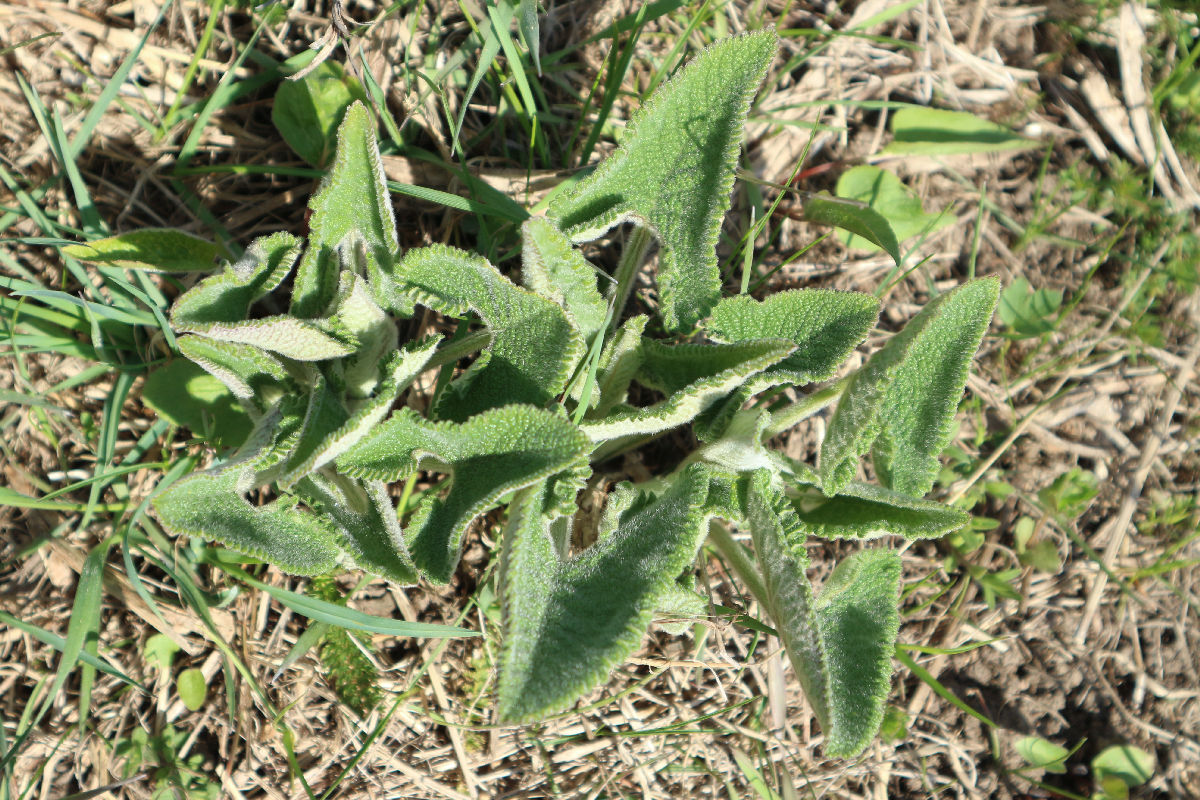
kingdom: Plantae
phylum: Tracheophyta
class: Magnoliopsida
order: Lamiales
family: Lamiaceae
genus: Phlomoides
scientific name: Phlomoides tuberosa
